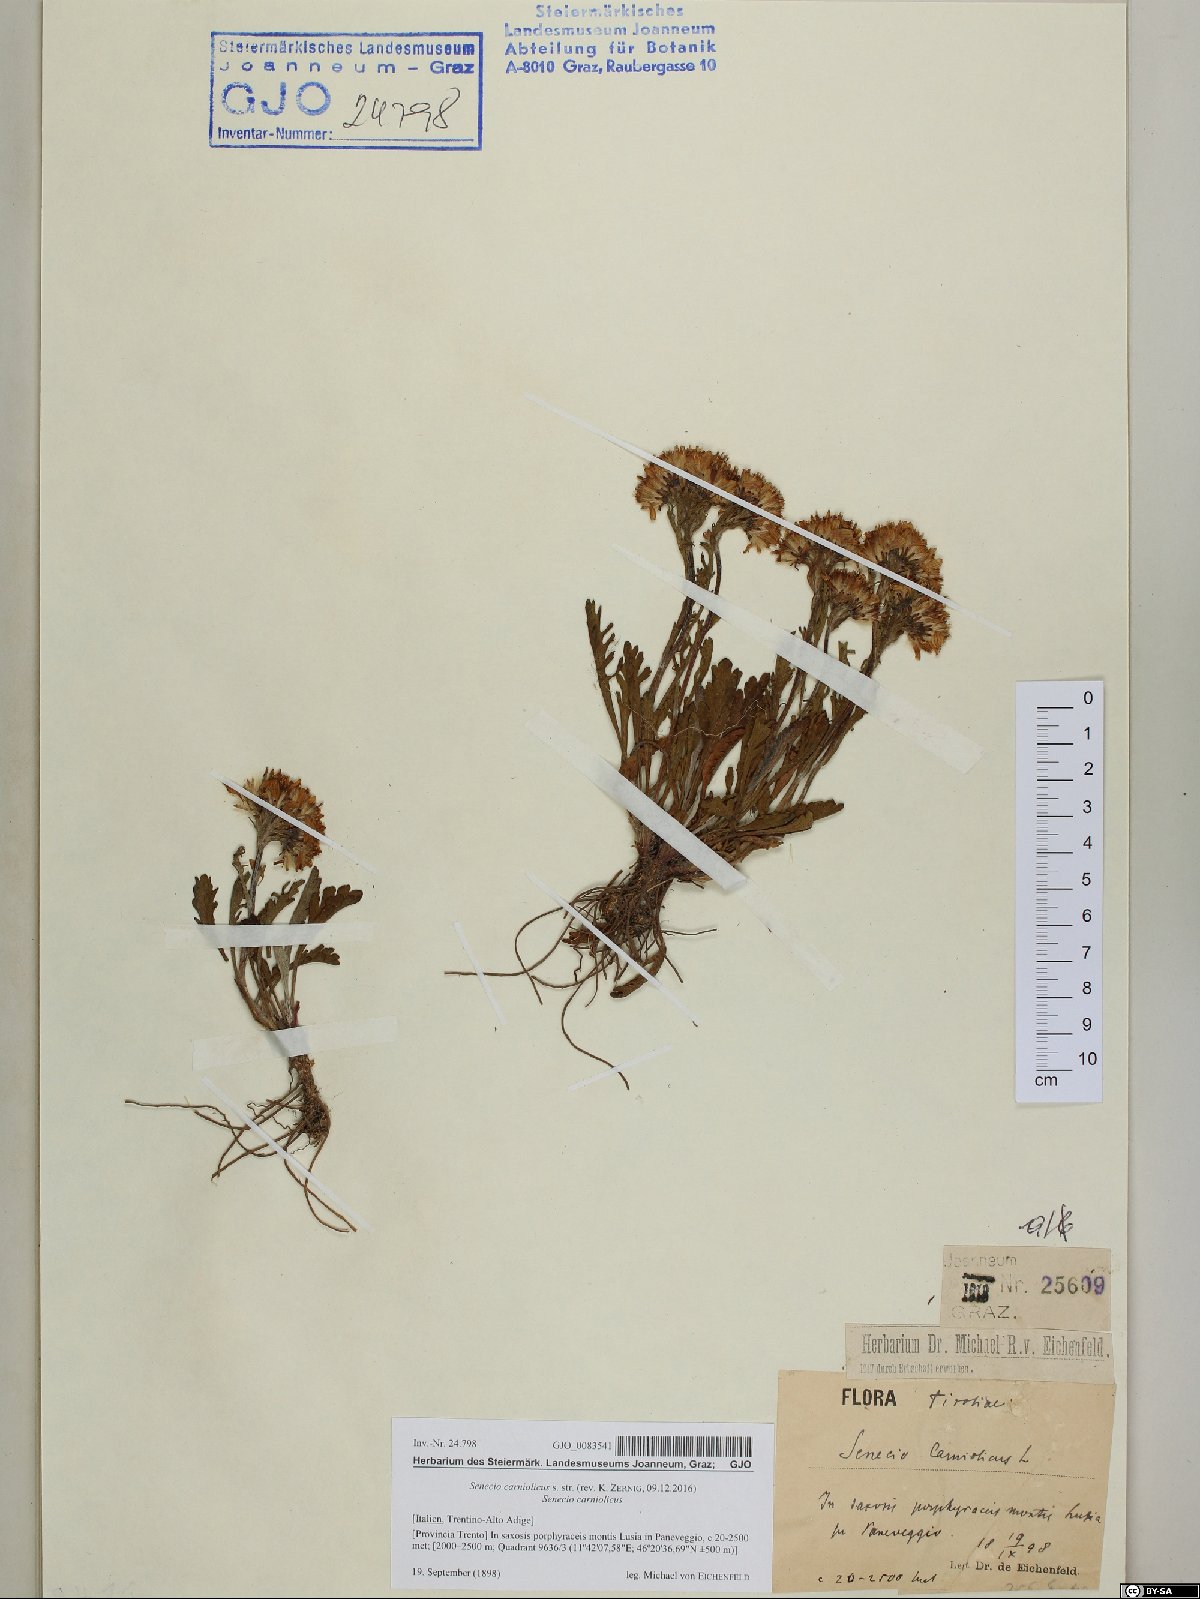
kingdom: Plantae
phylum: Tracheophyta
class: Magnoliopsida
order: Asterales
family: Asteraceae
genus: Jacobaea
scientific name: Jacobaea carniolica
